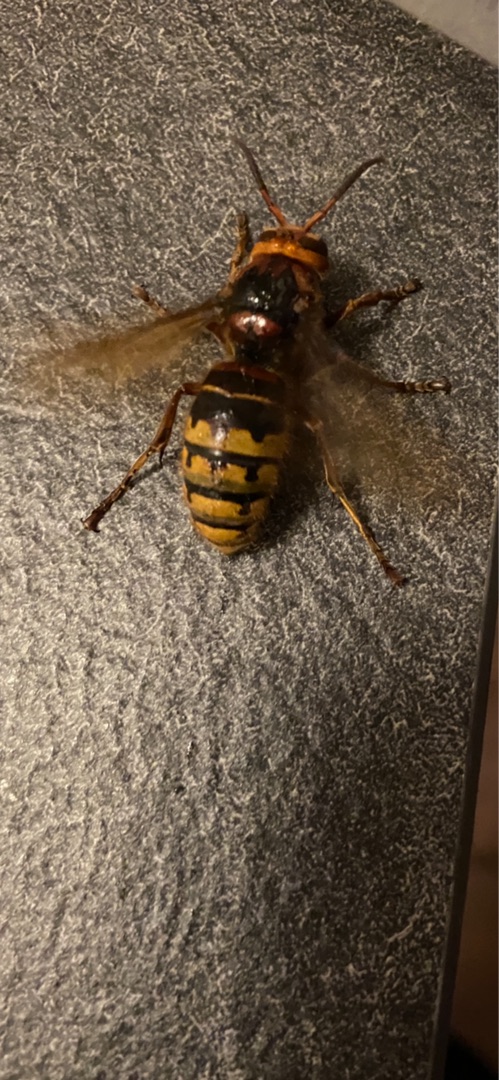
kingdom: Animalia
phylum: Arthropoda
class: Insecta
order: Hymenoptera
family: Vespidae
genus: Vespa
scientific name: Vespa crabro
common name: Stor gedehams
